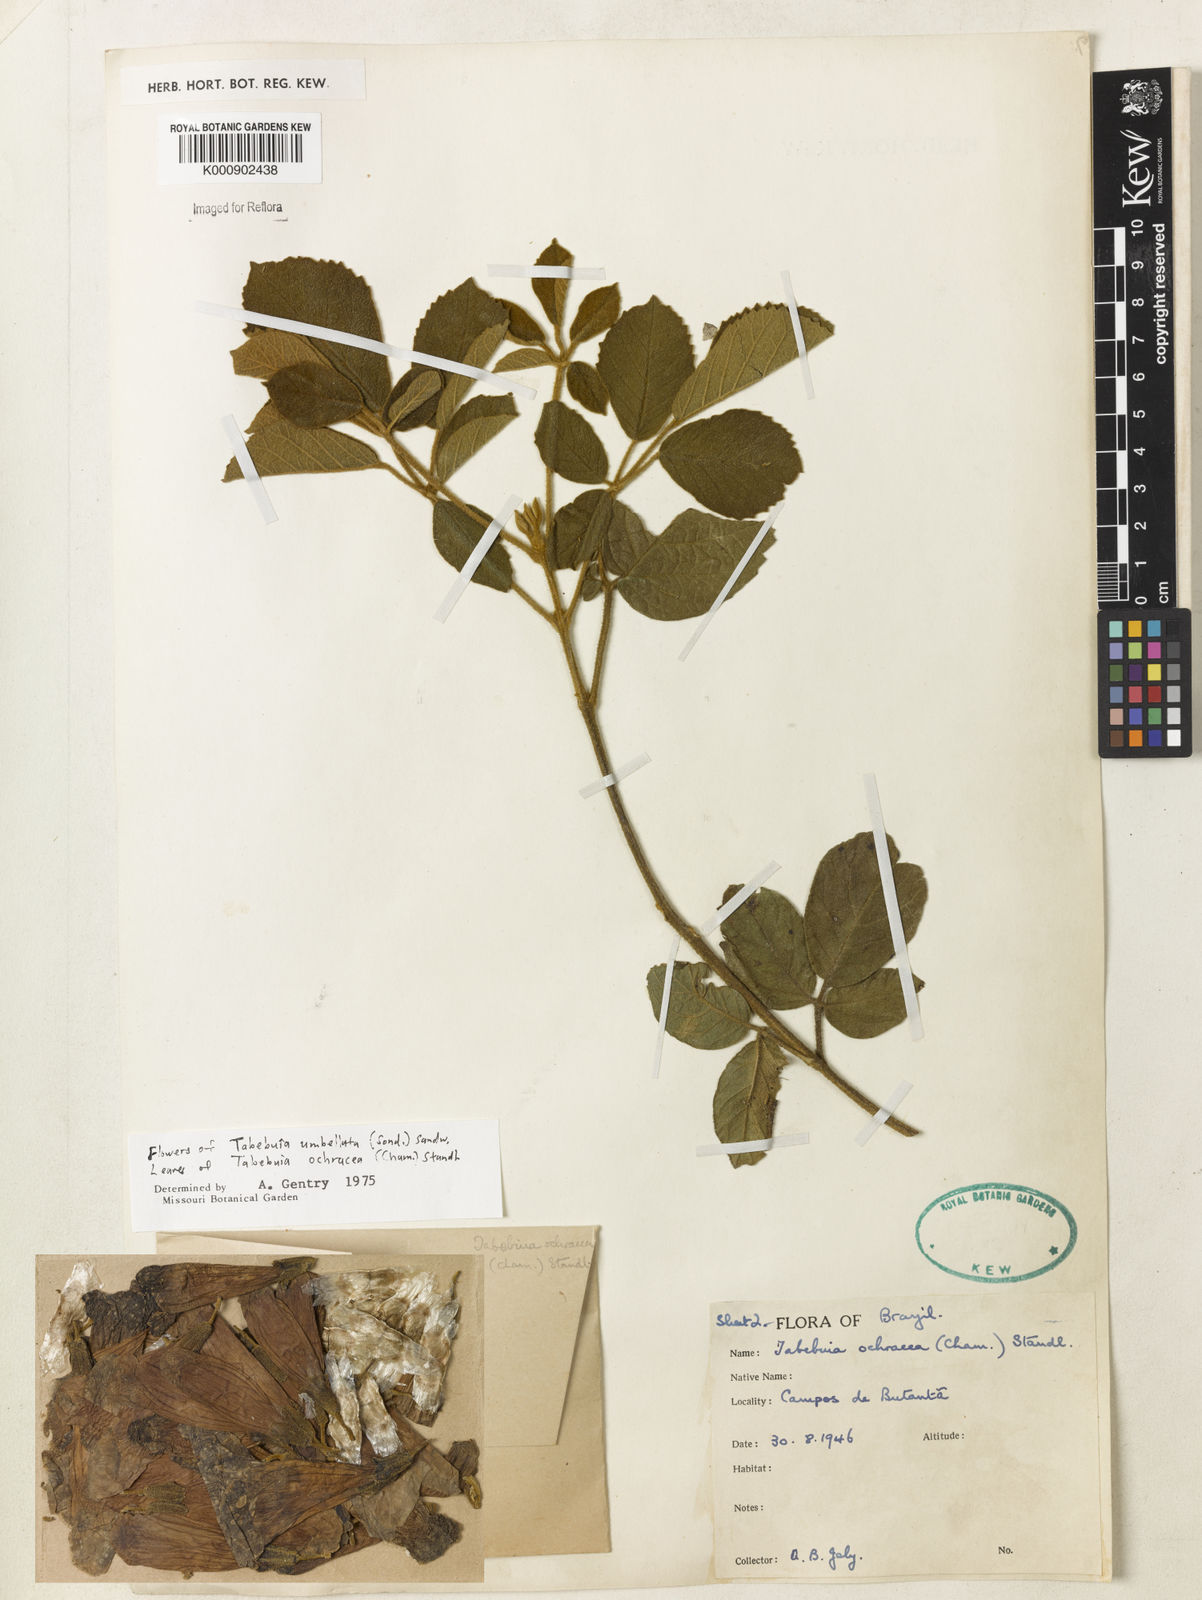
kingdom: Plantae
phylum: Tracheophyta
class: Magnoliopsida
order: Lamiales
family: Bignoniaceae
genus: Handroanthus
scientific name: Handroanthus ochraceus
